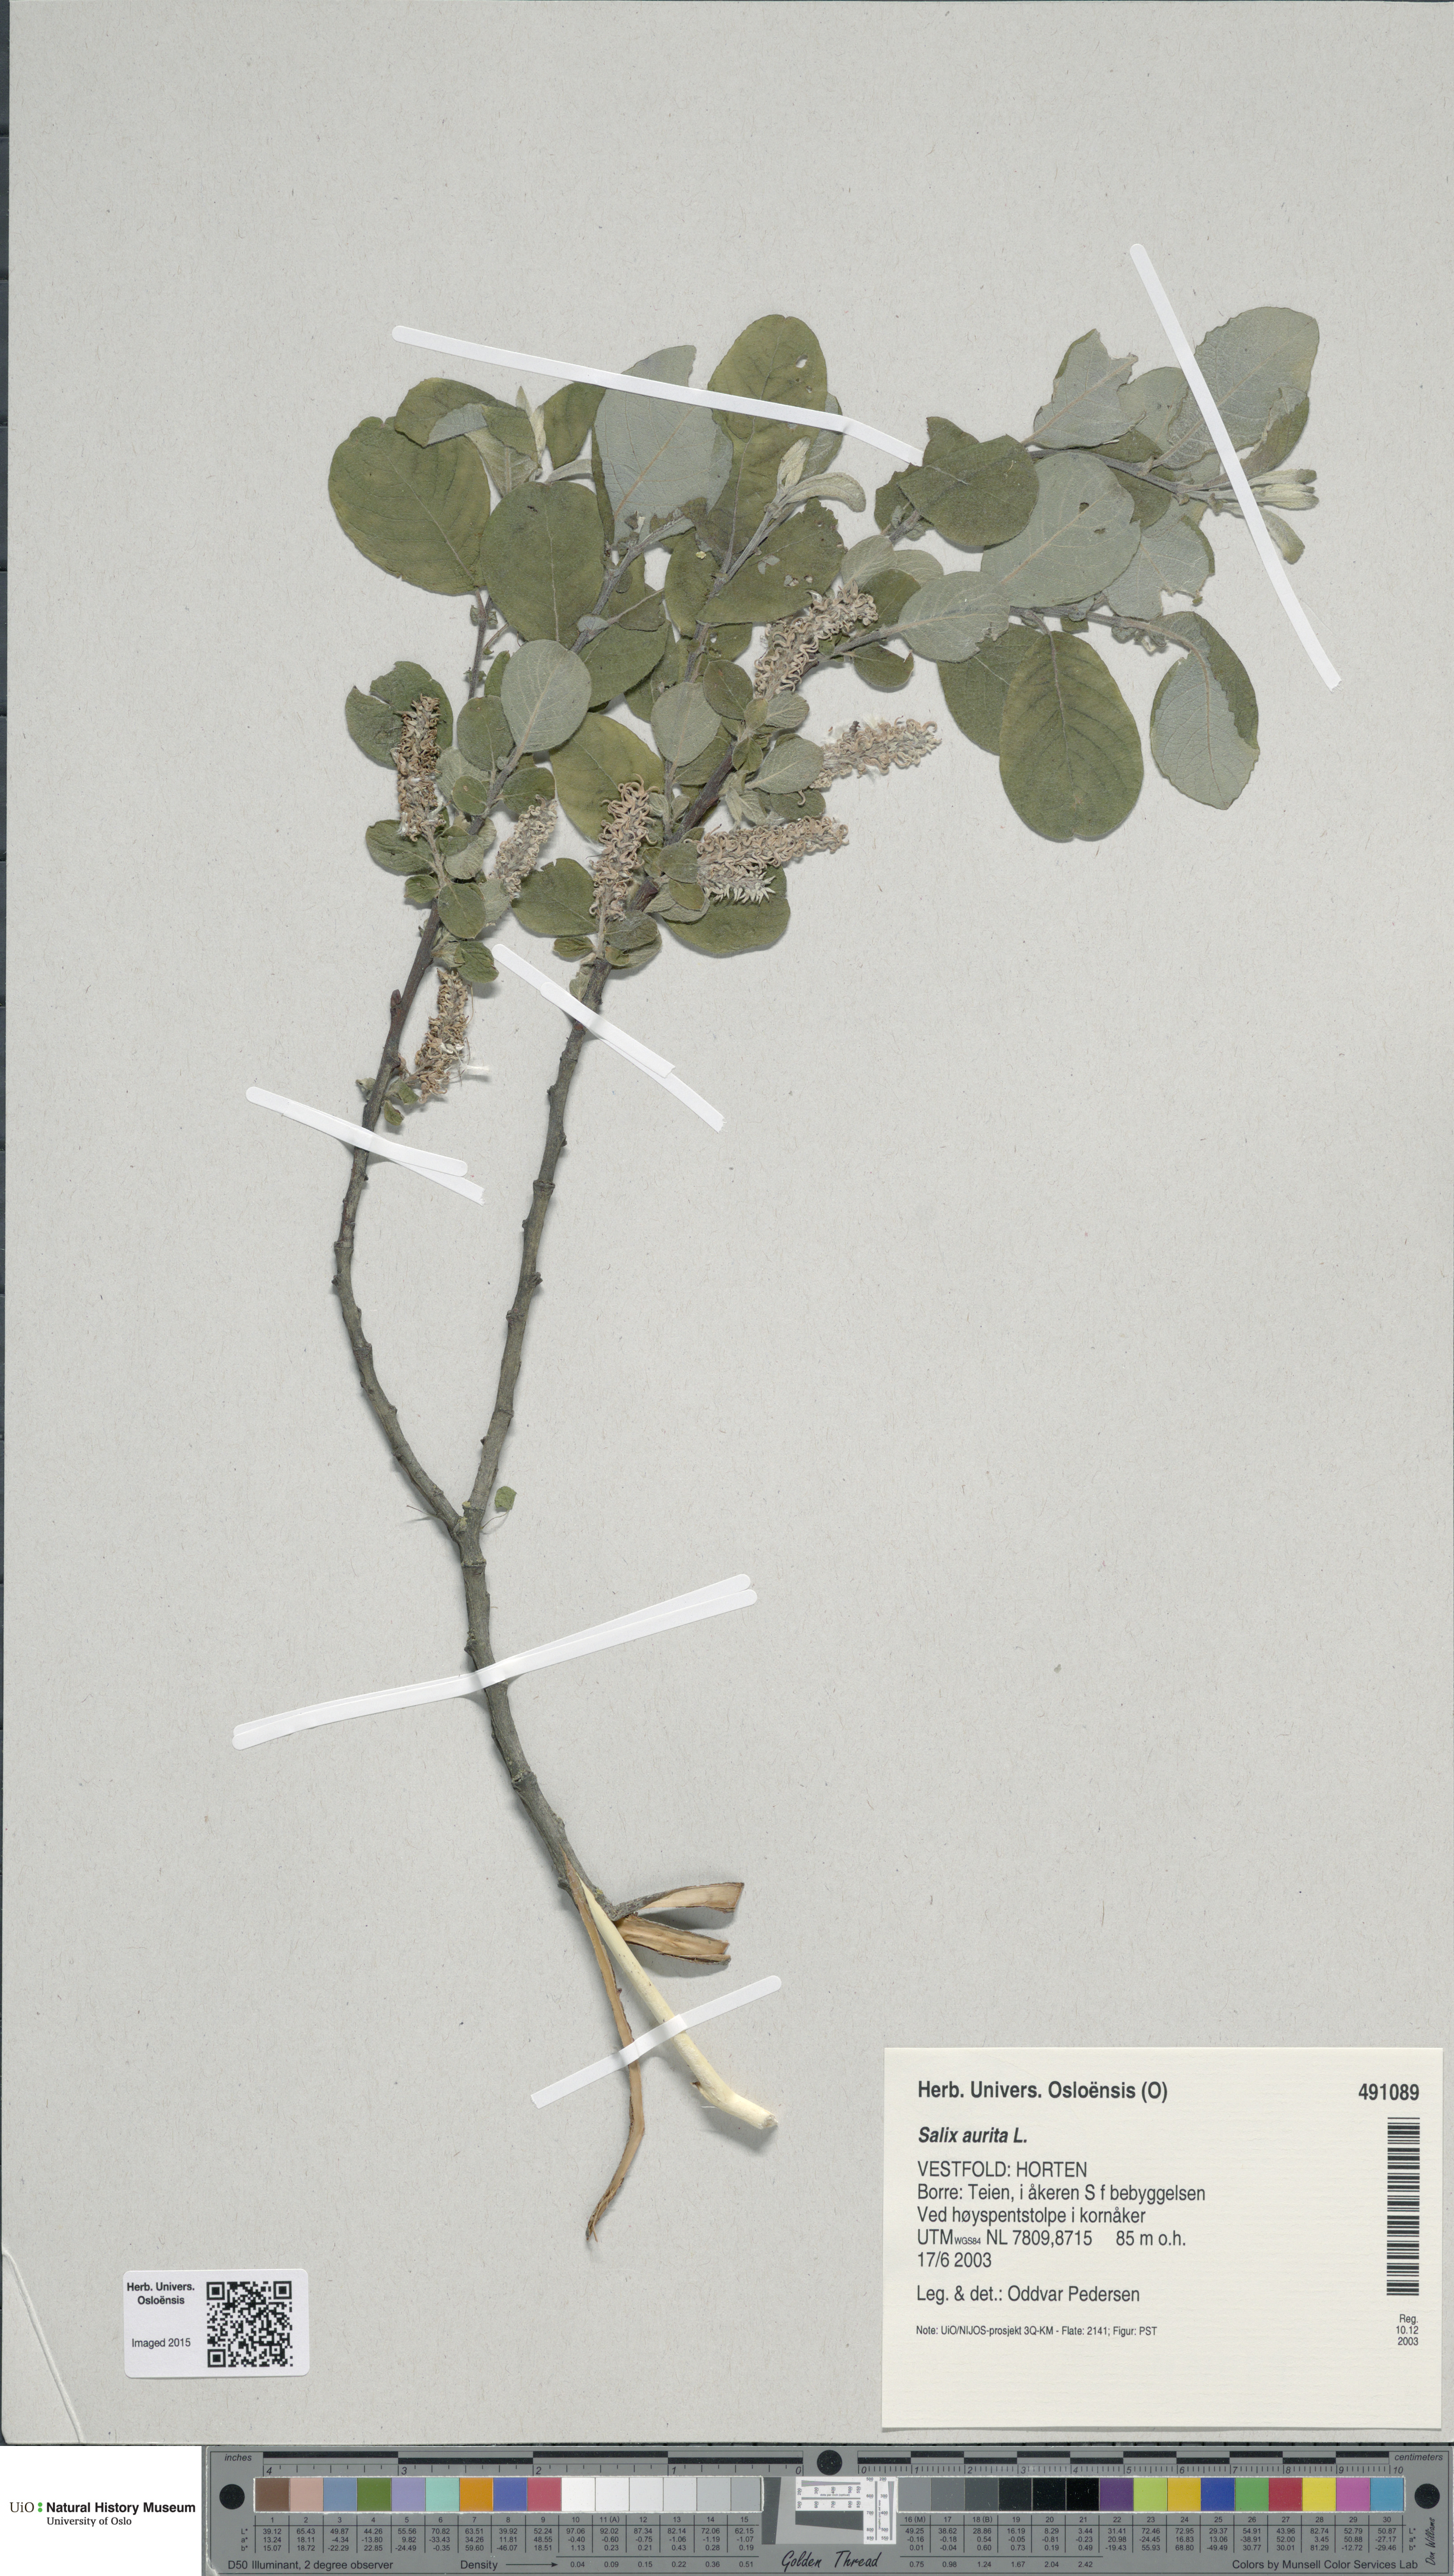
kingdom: Plantae
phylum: Tracheophyta
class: Magnoliopsida
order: Malpighiales
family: Salicaceae
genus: Salix
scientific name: Salix aurita
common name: Eared willow
